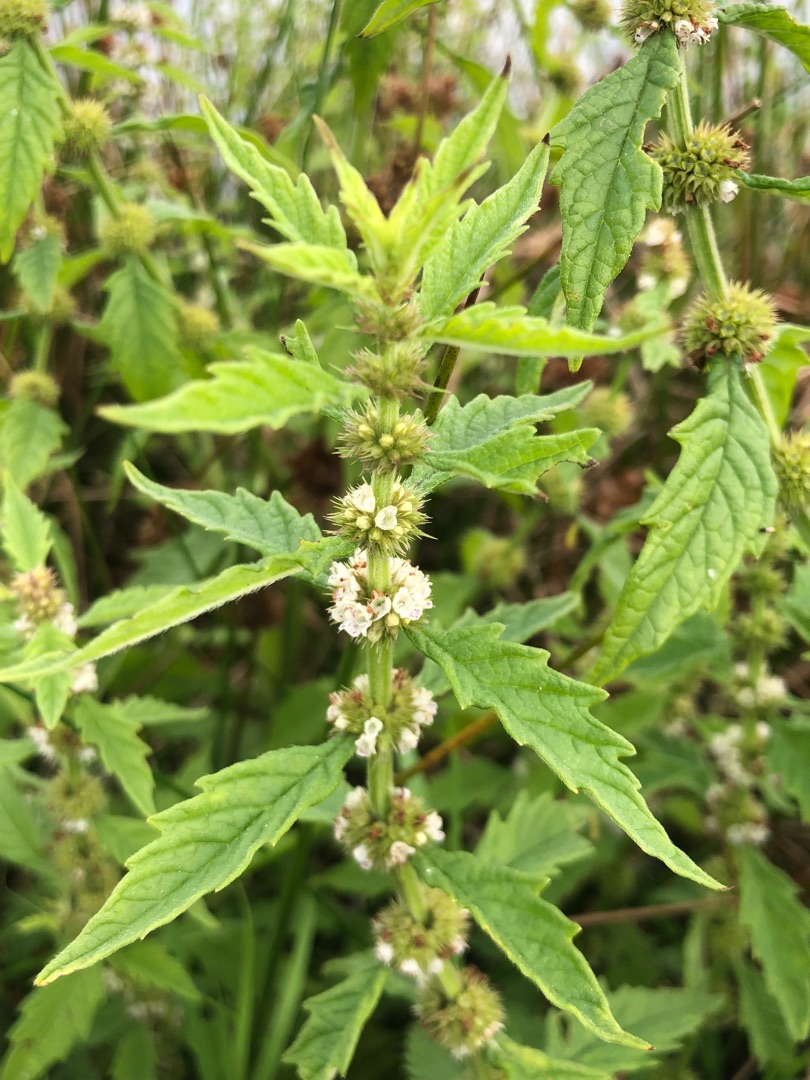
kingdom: Plantae
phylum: Tracheophyta
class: Magnoliopsida
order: Lamiales
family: Lamiaceae
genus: Lycopus
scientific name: Lycopus europaeus
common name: Sværtevæld
